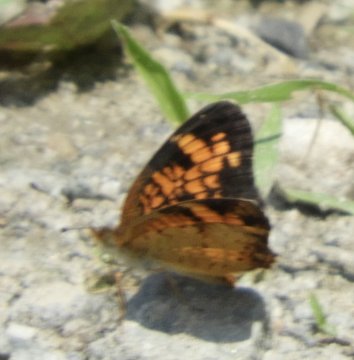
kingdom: Animalia
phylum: Arthropoda
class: Insecta
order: Lepidoptera
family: Nymphalidae
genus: Phyciodes
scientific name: Phyciodes
